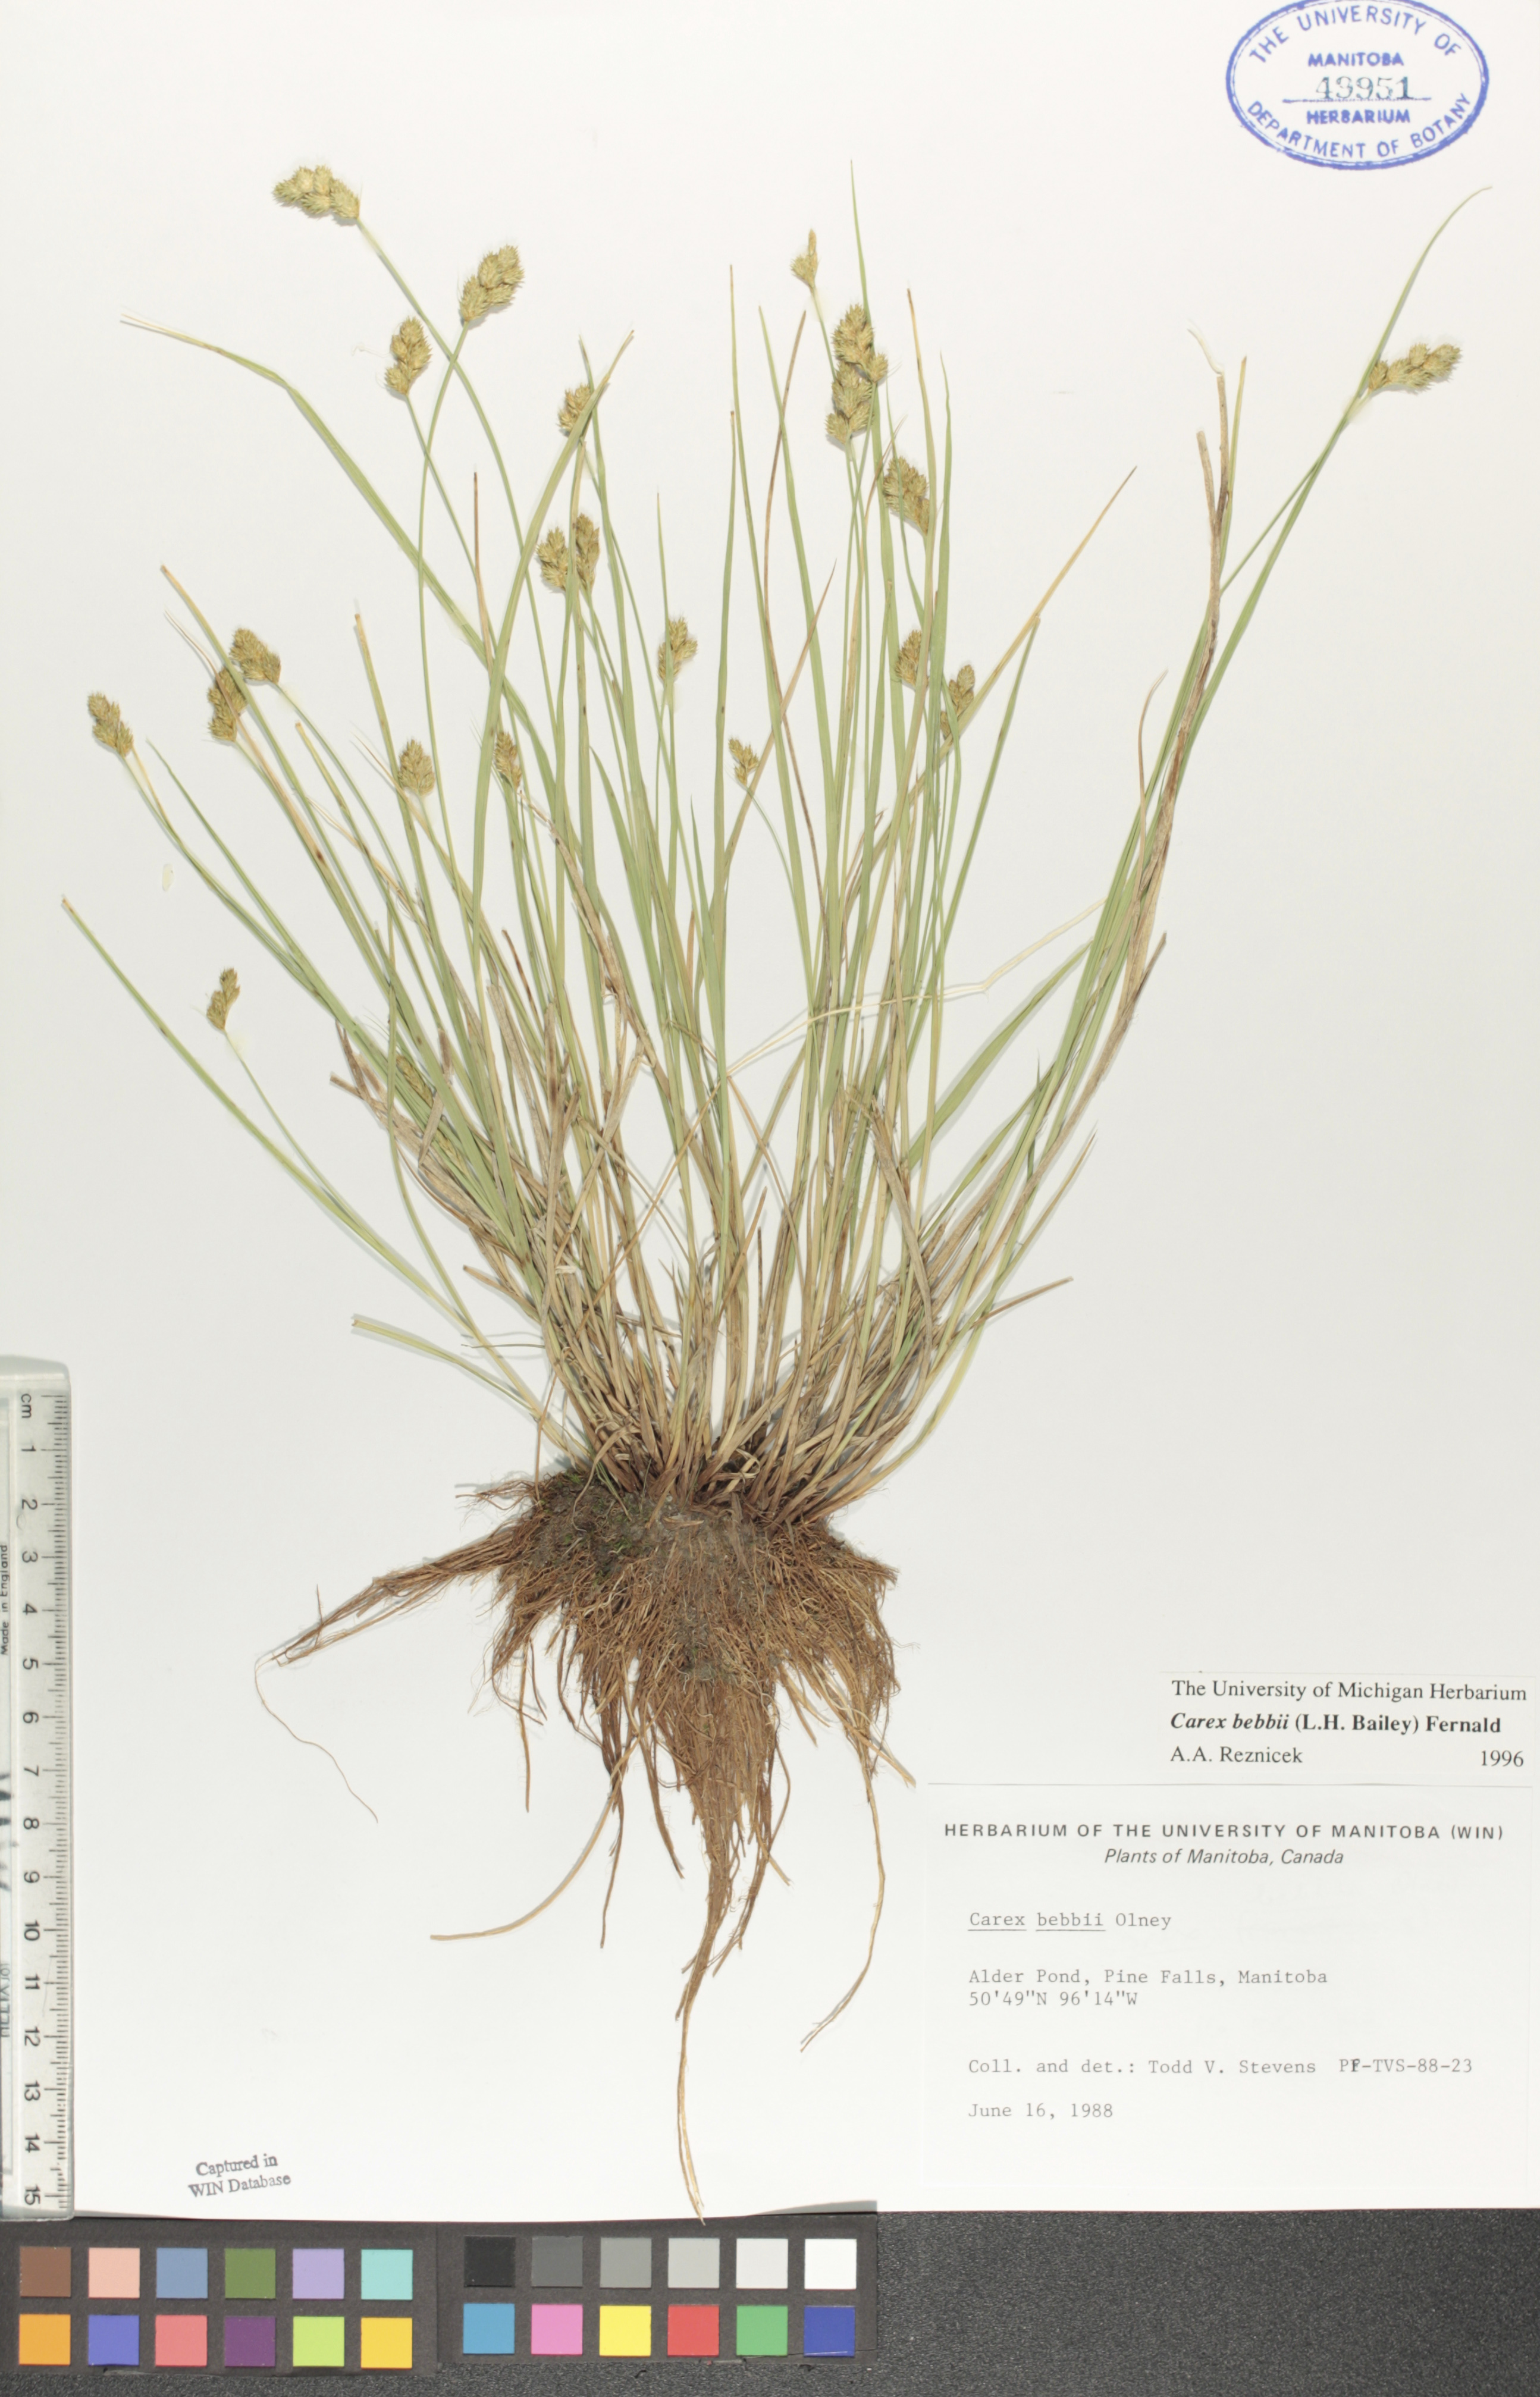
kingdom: Plantae
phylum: Tracheophyta
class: Liliopsida
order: Poales
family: Cyperaceae
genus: Carex
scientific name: Carex bebbii
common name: Bebb's sedge
